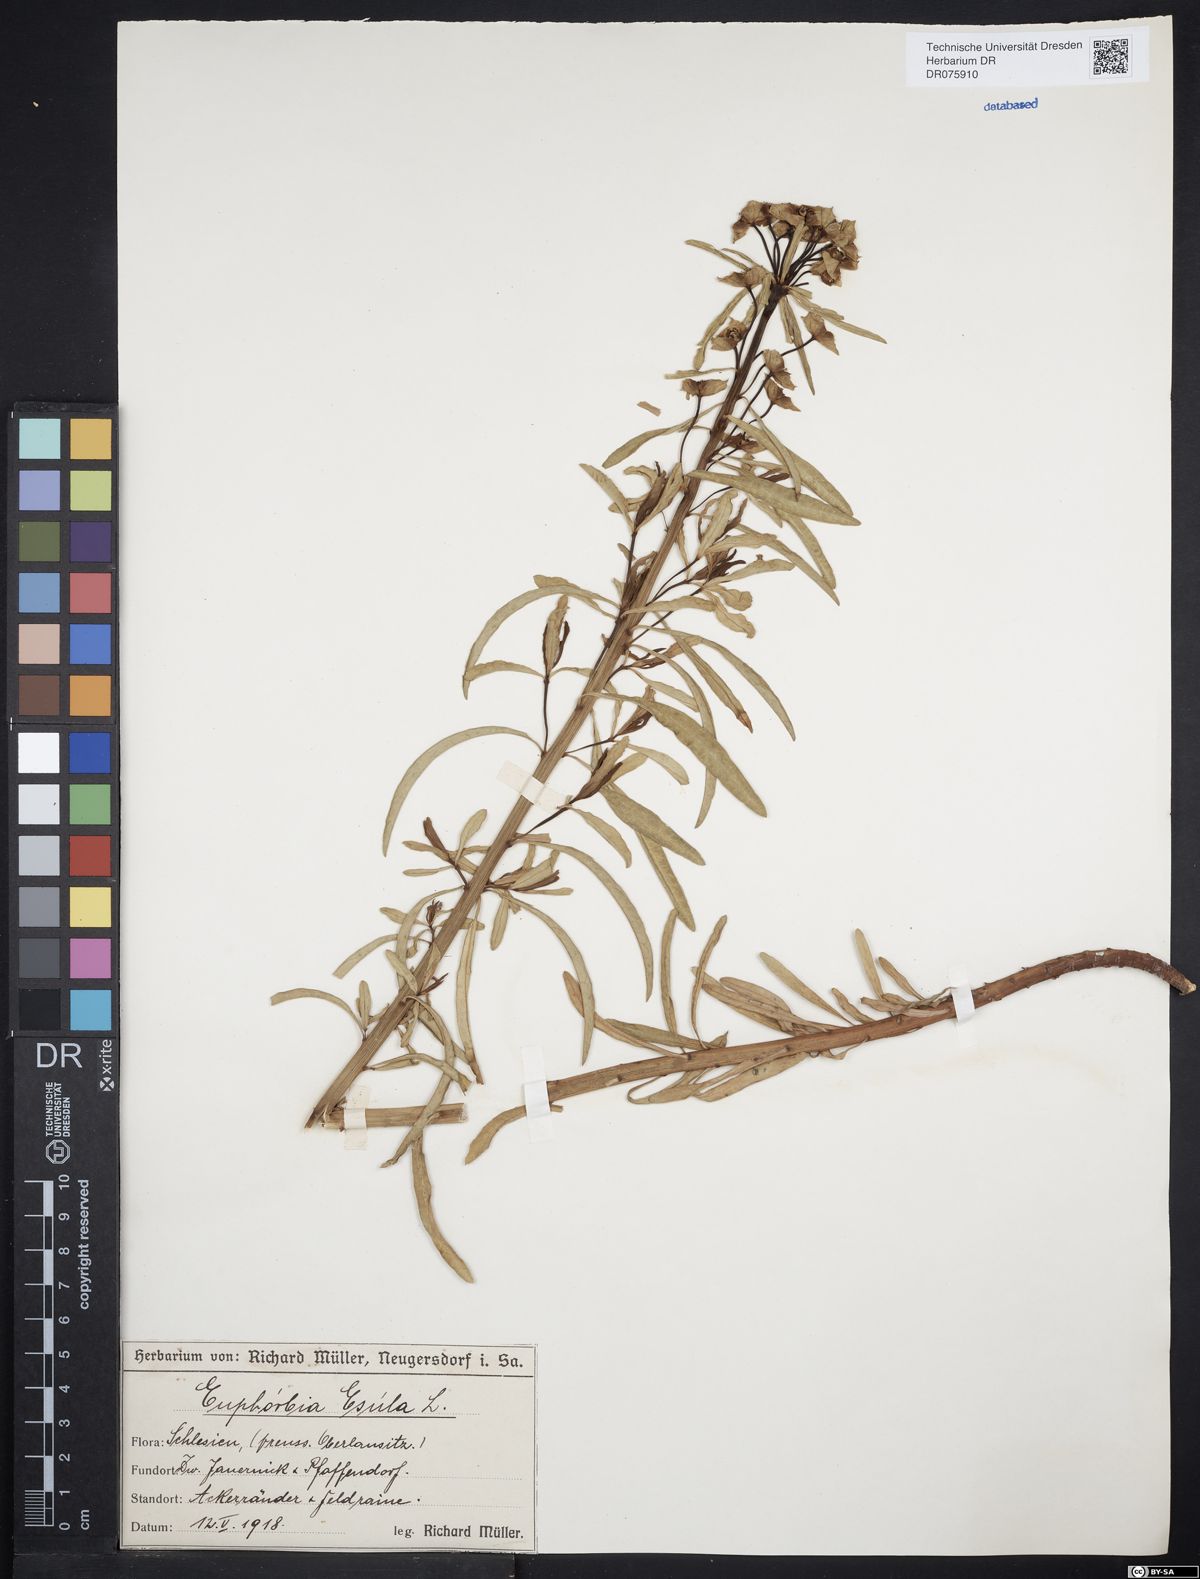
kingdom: Plantae
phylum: Tracheophyta
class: Magnoliopsida
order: Malpighiales
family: Euphorbiaceae
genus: Euphorbia
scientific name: Euphorbia esula
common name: Leafy spurge
